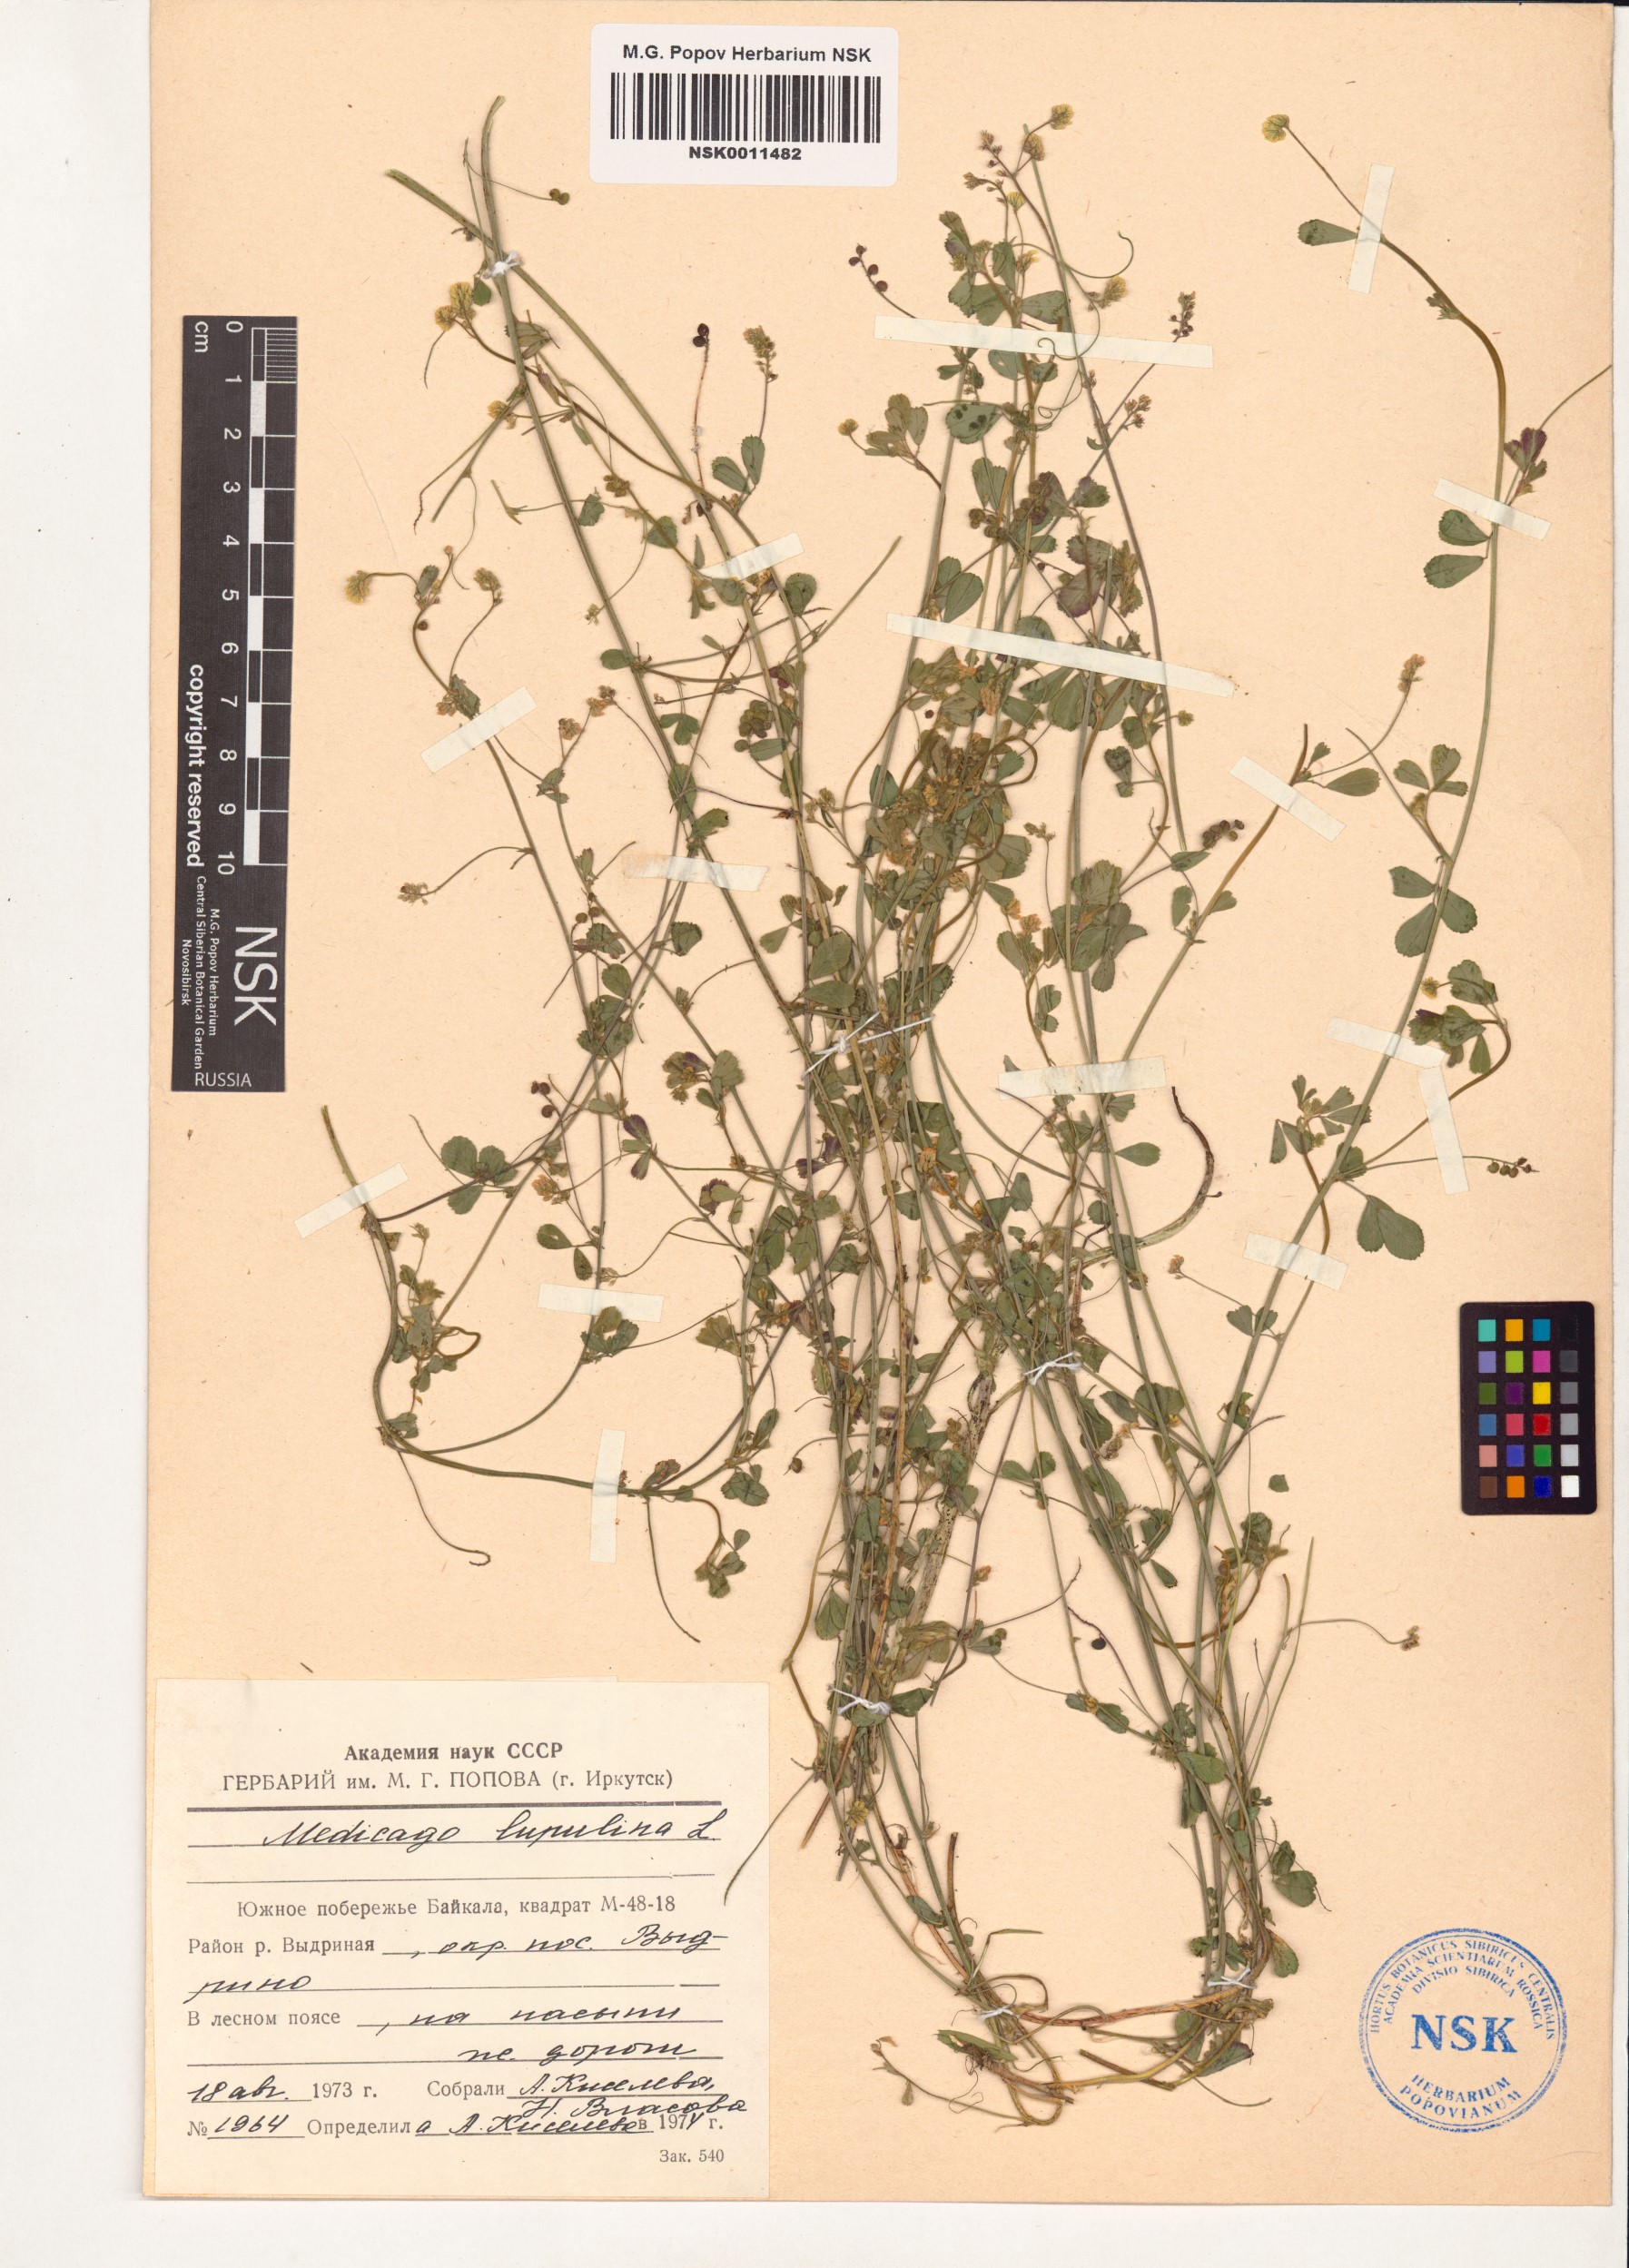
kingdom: Plantae
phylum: Tracheophyta
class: Magnoliopsida
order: Fabales
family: Fabaceae
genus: Medicago
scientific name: Medicago lupulina
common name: Black medick
